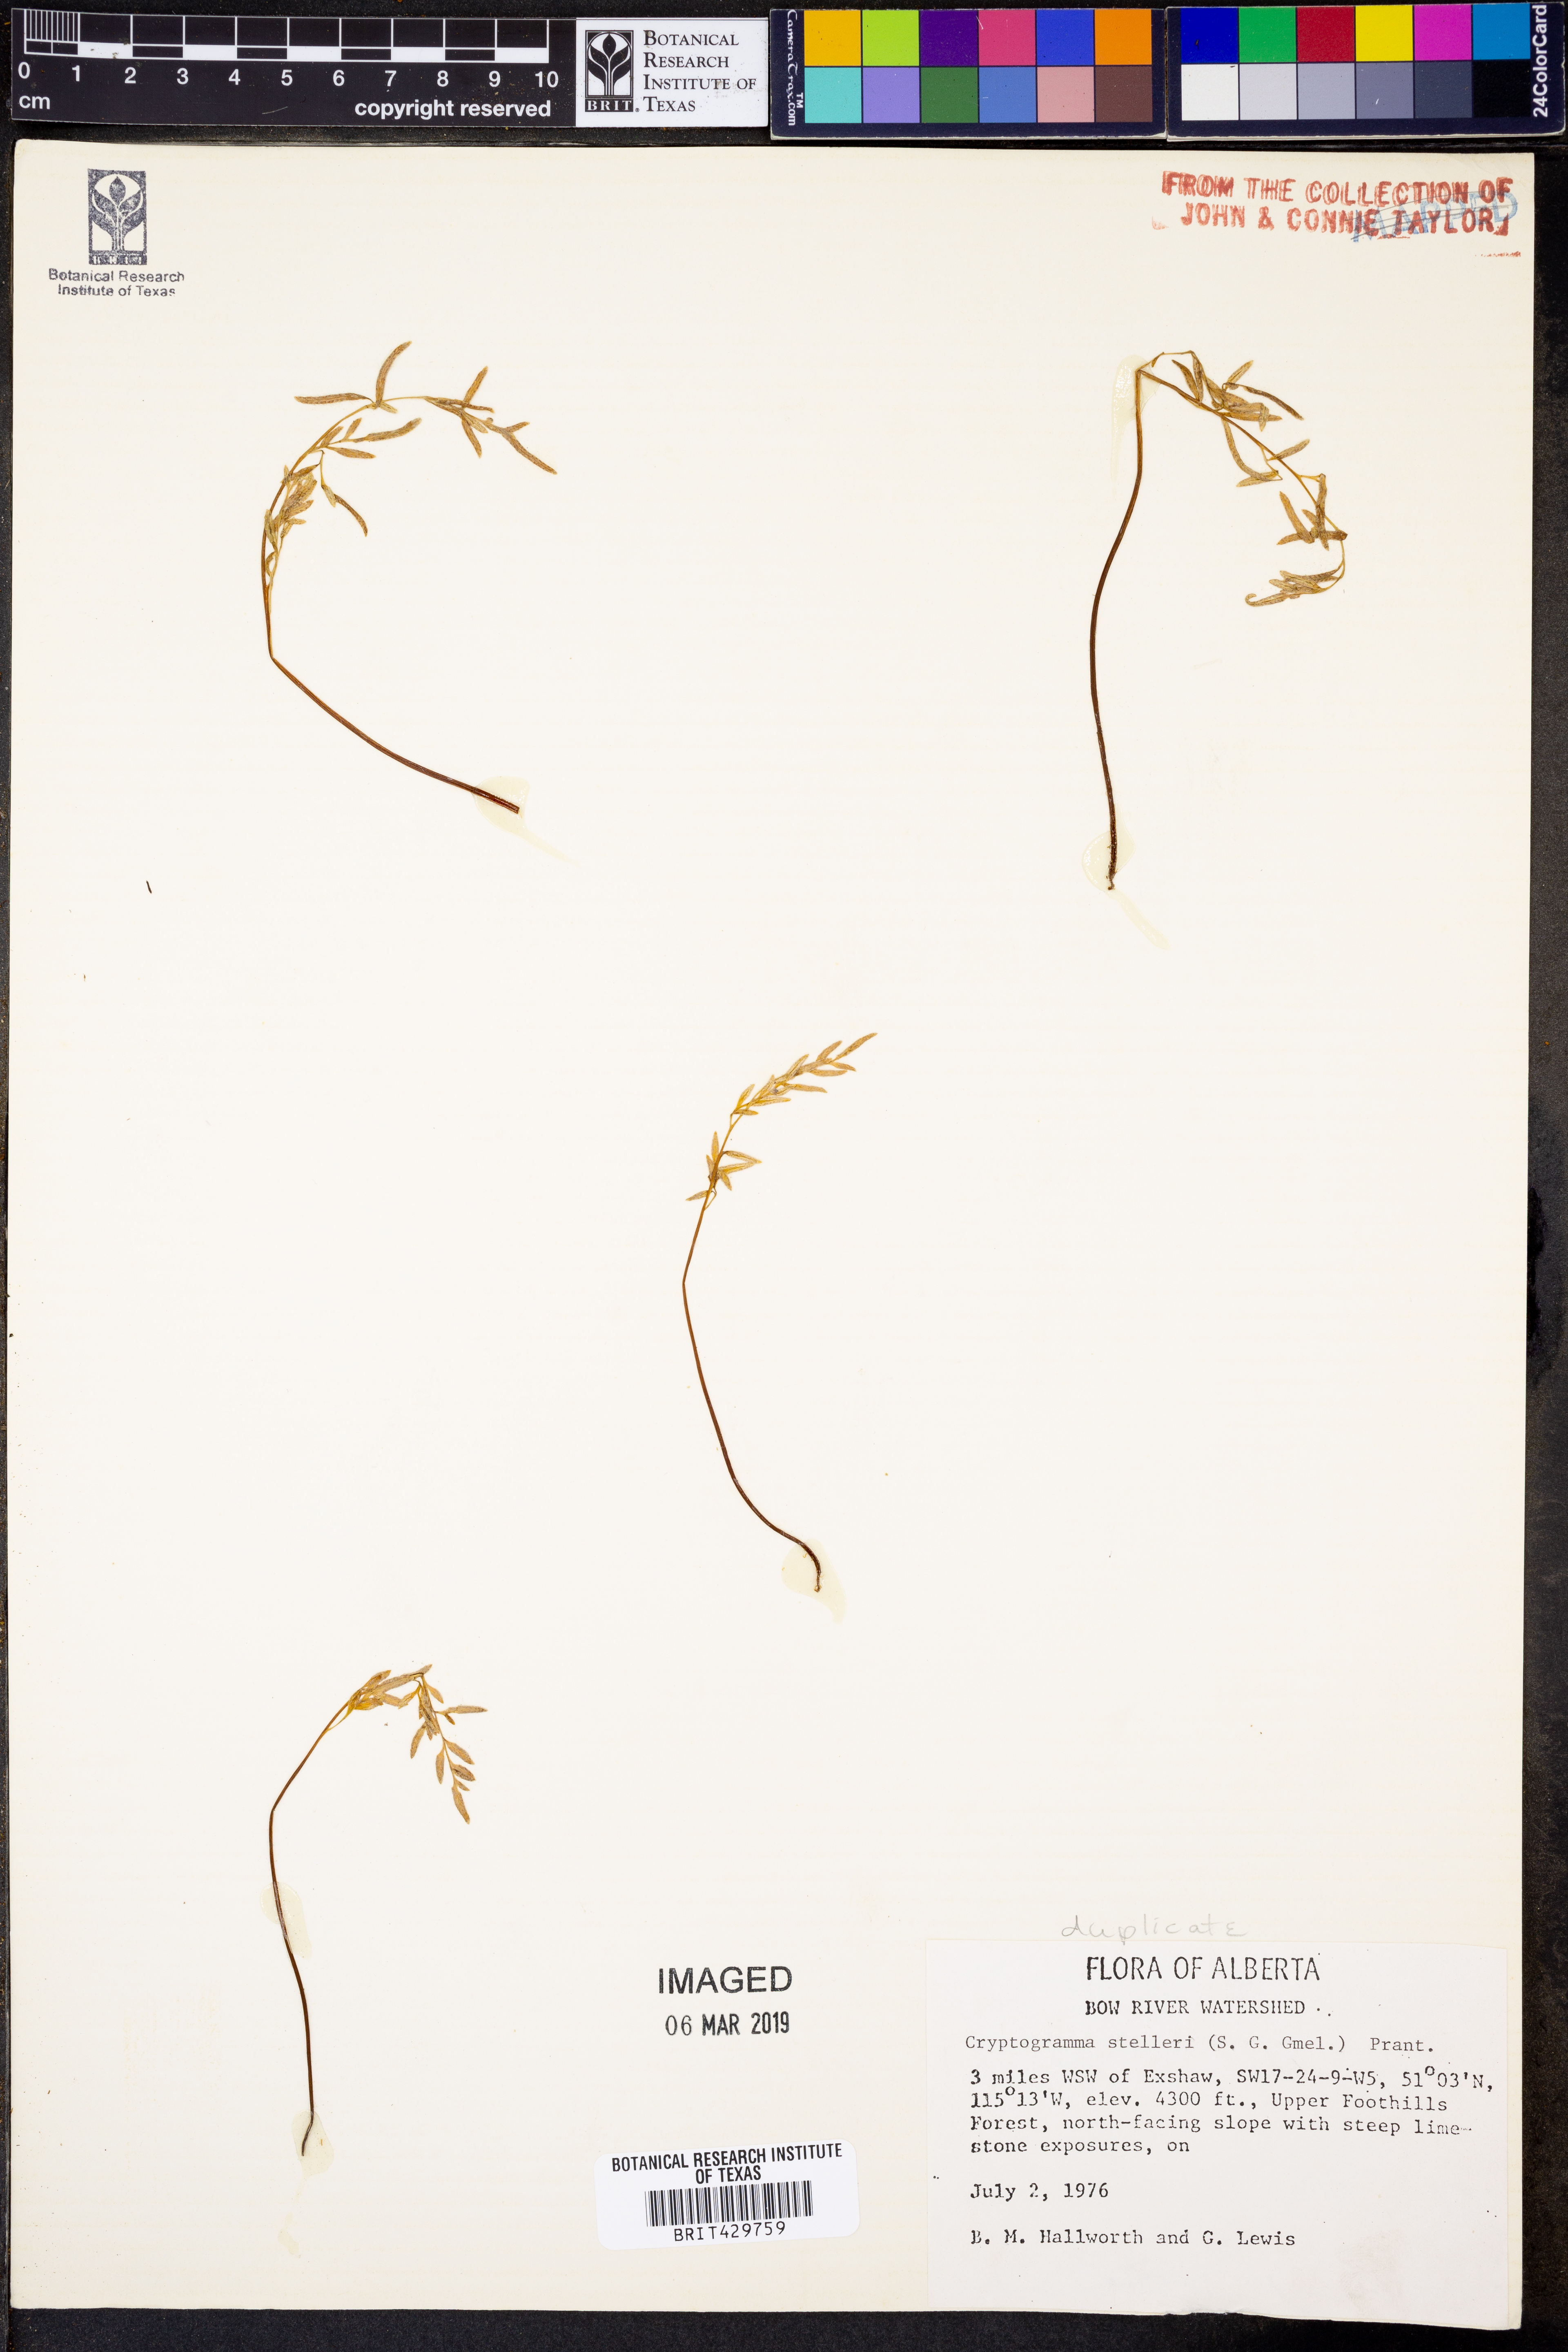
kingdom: Plantae
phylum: Tracheophyta
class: Polypodiopsida
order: Polypodiales
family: Pteridaceae
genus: Cryptogramma
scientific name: Cryptogramma stelleri
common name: Cliff-brake
